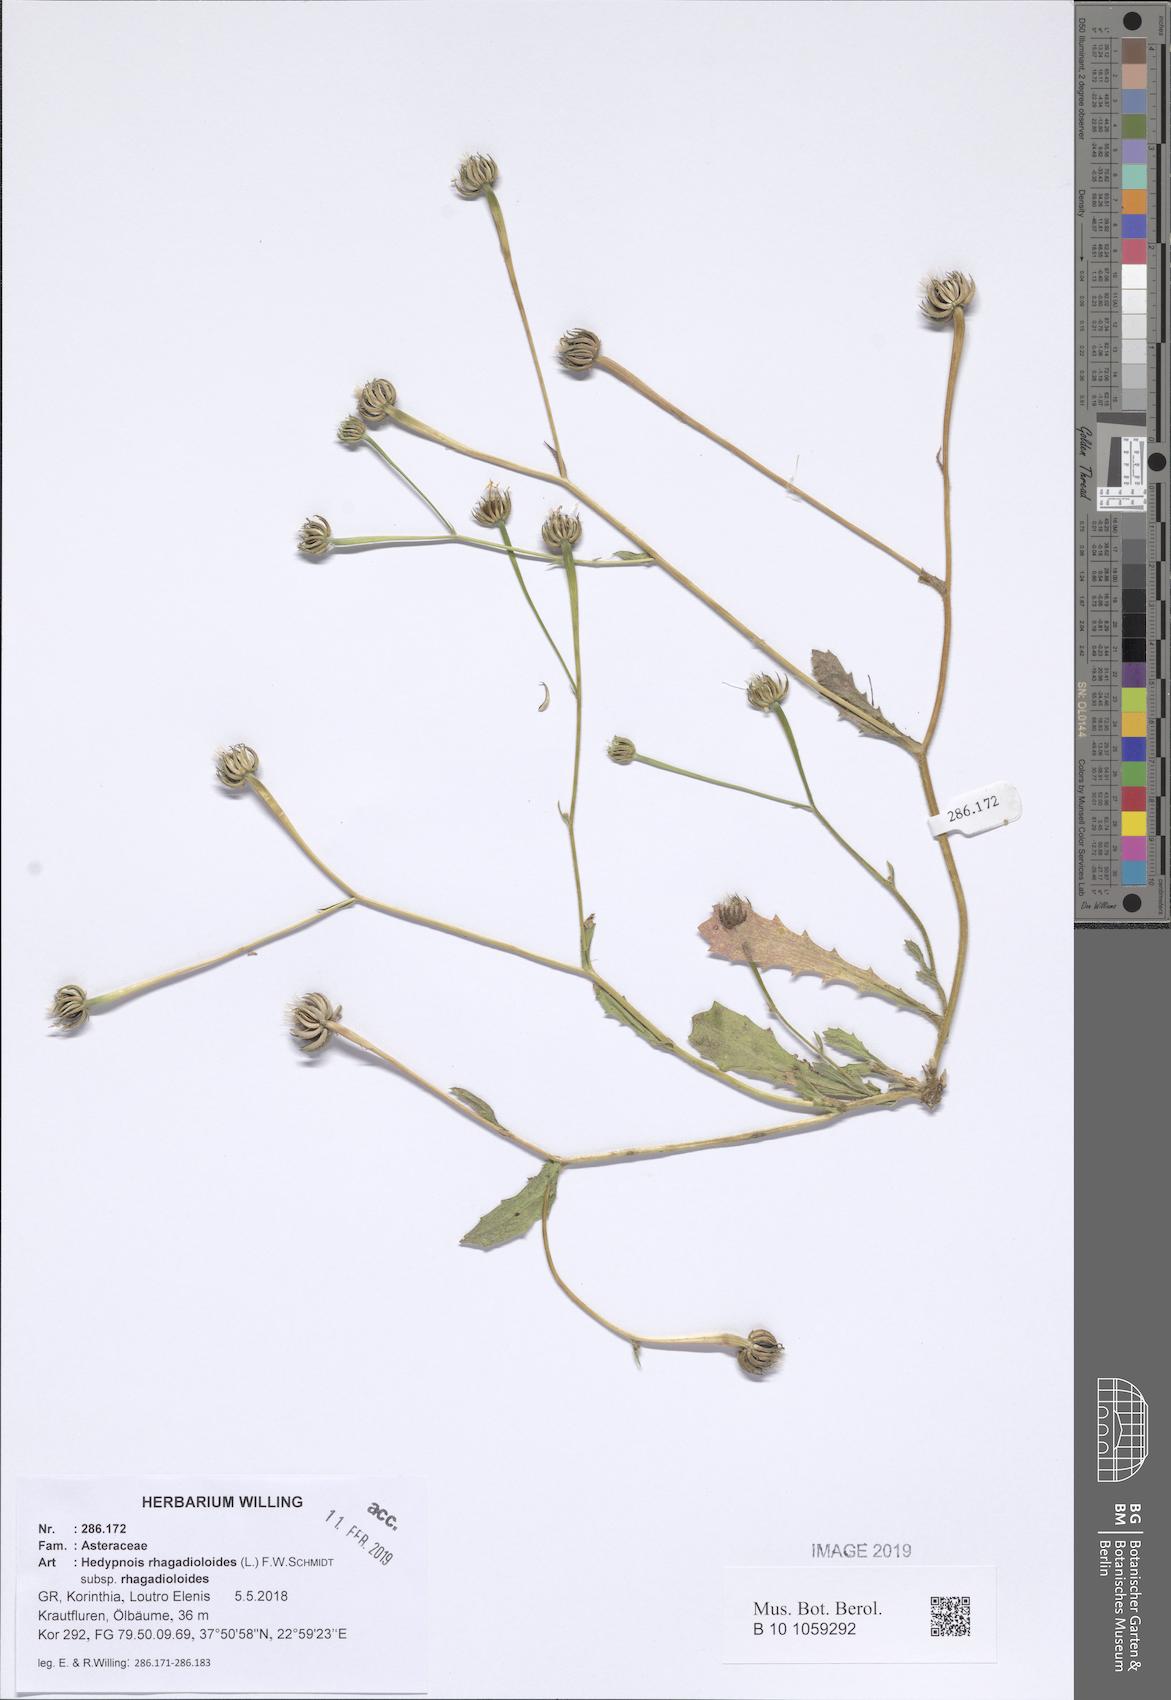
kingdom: Plantae
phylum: Tracheophyta
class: Magnoliopsida
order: Asterales
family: Asteraceae
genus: Hedypnois
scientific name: Hedypnois rhagadioloides
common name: Cretan weed
